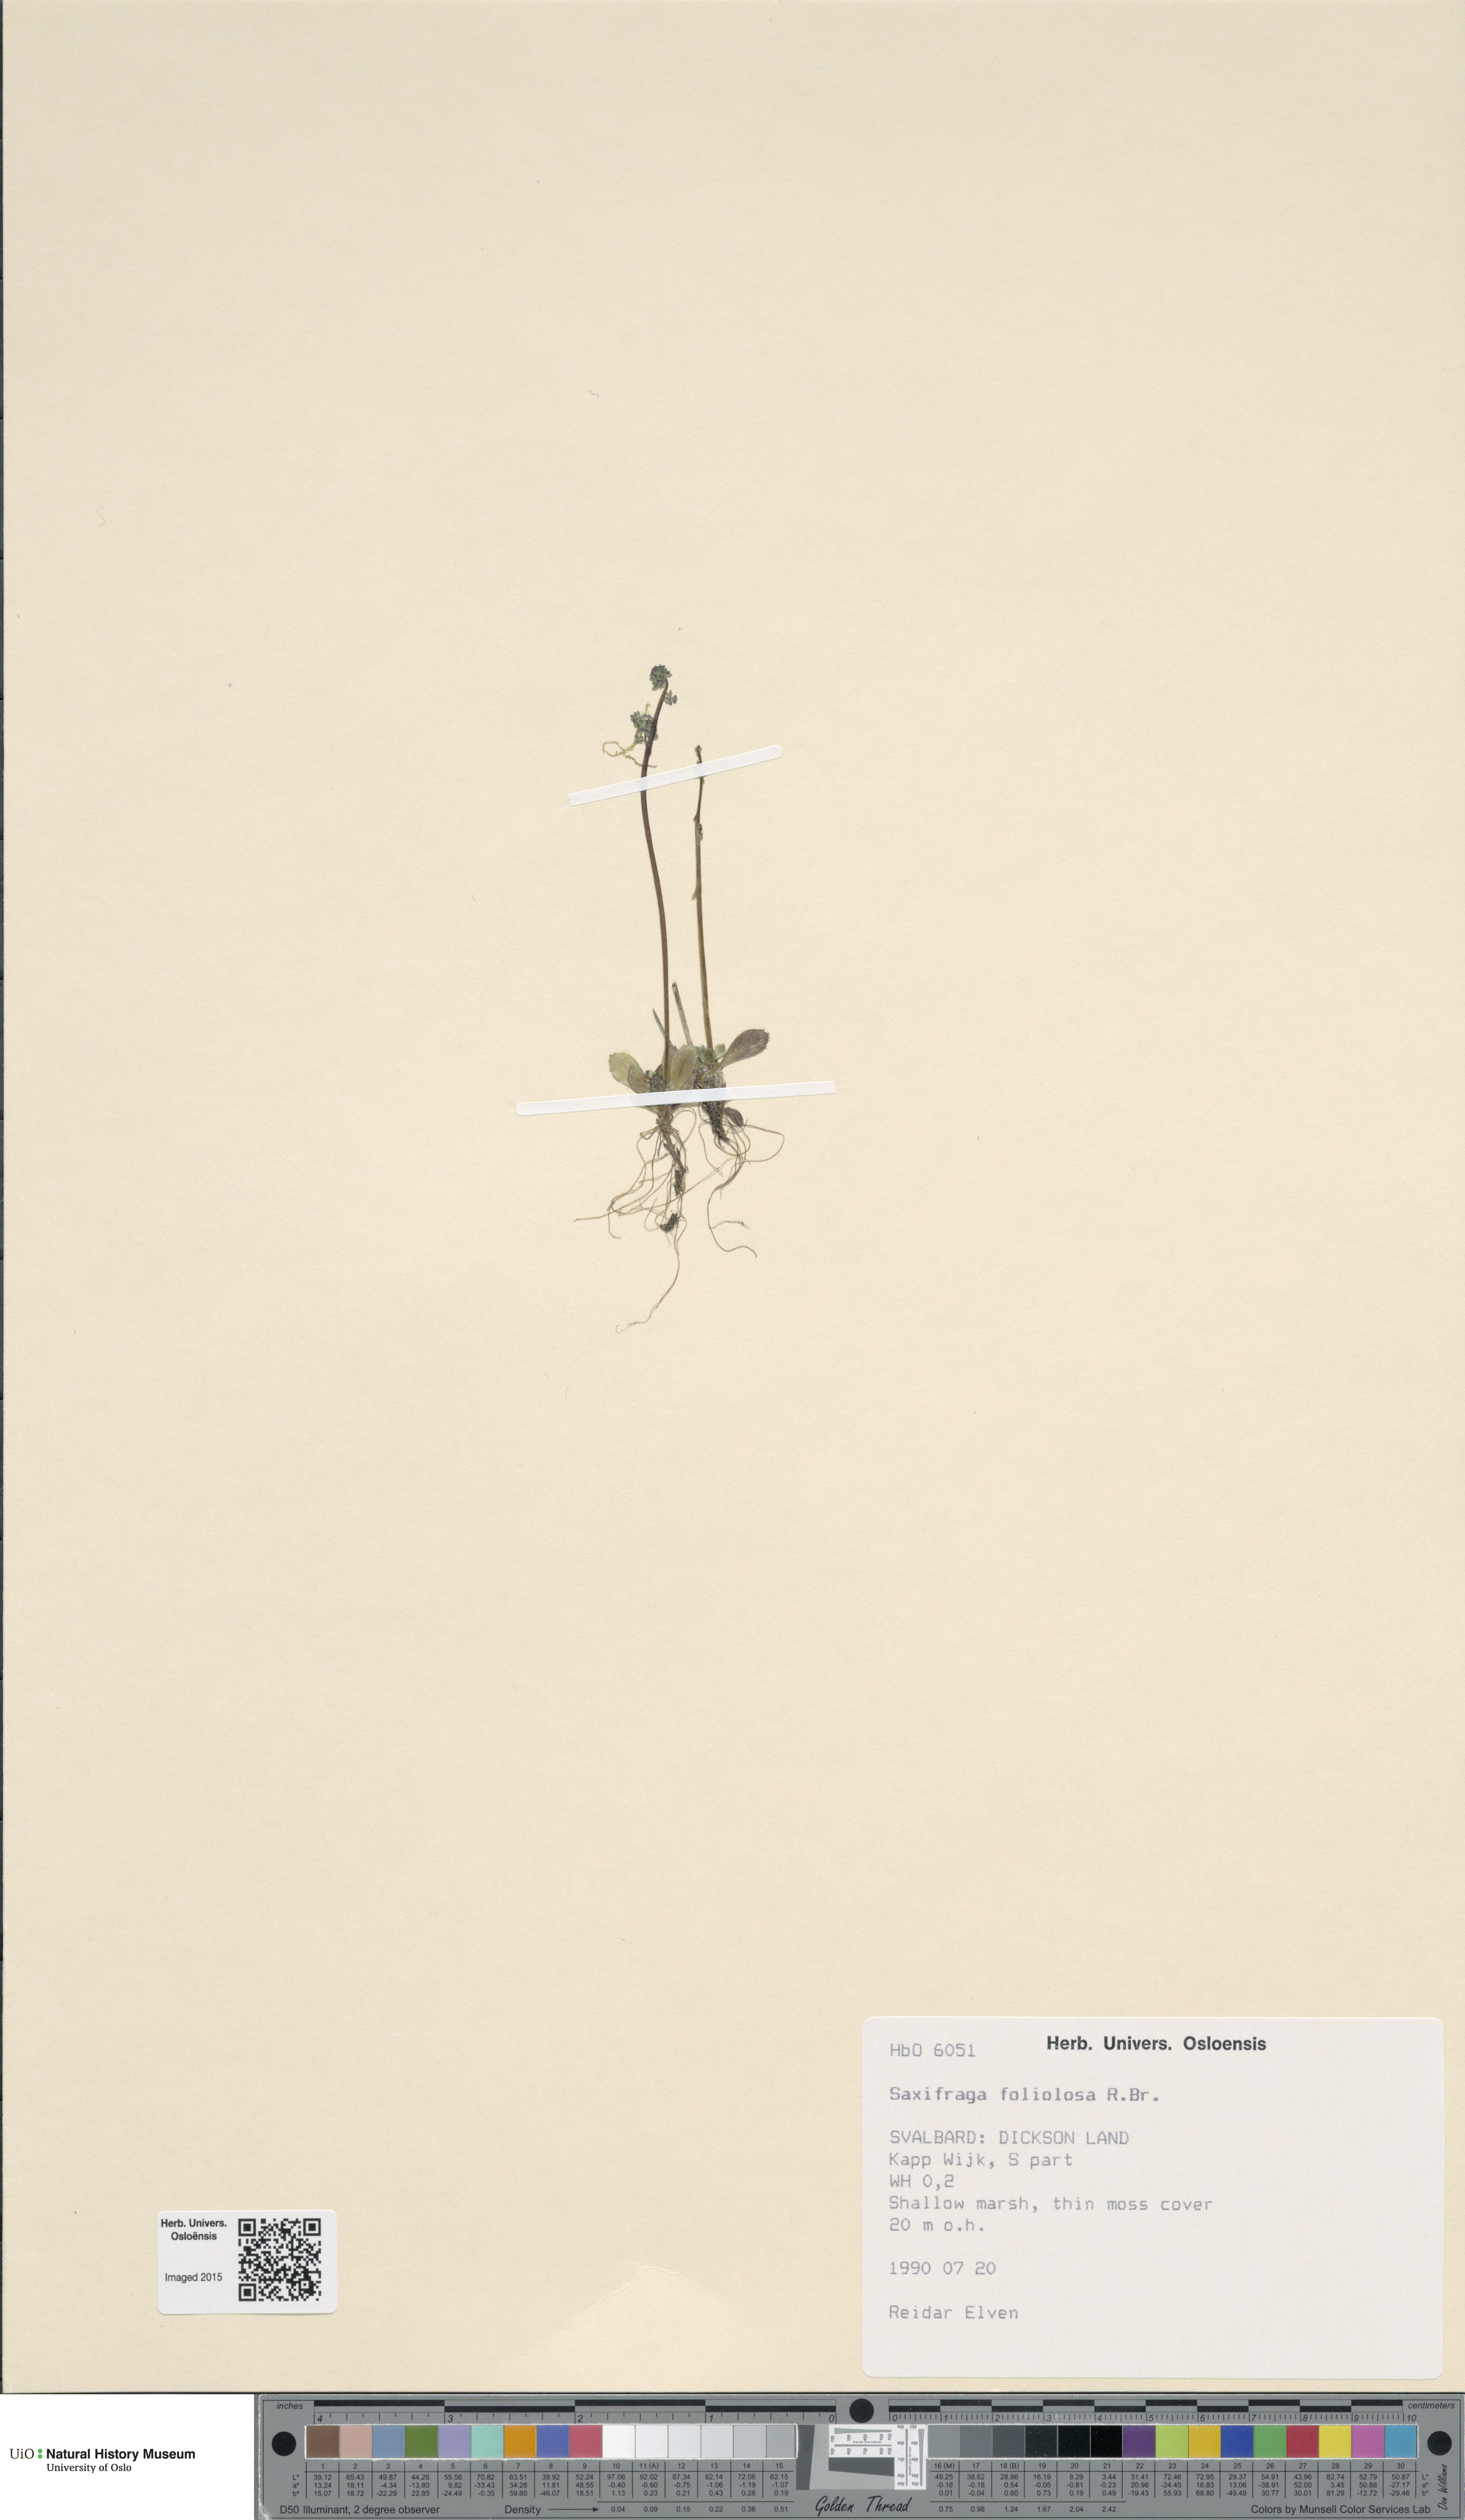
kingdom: Plantae
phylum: Tracheophyta
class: Magnoliopsida
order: Saxifragales
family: Saxifragaceae
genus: Micranthes
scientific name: Micranthes foliolosa
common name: Leafystem saxifrage
